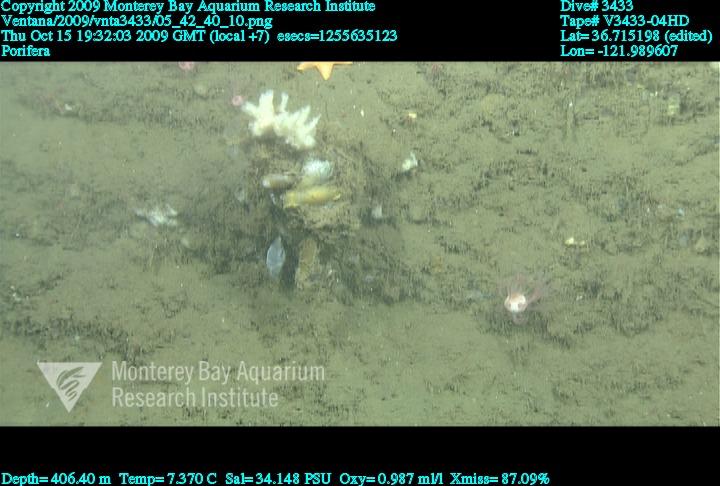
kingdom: Animalia
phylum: Porifera
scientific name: Porifera
